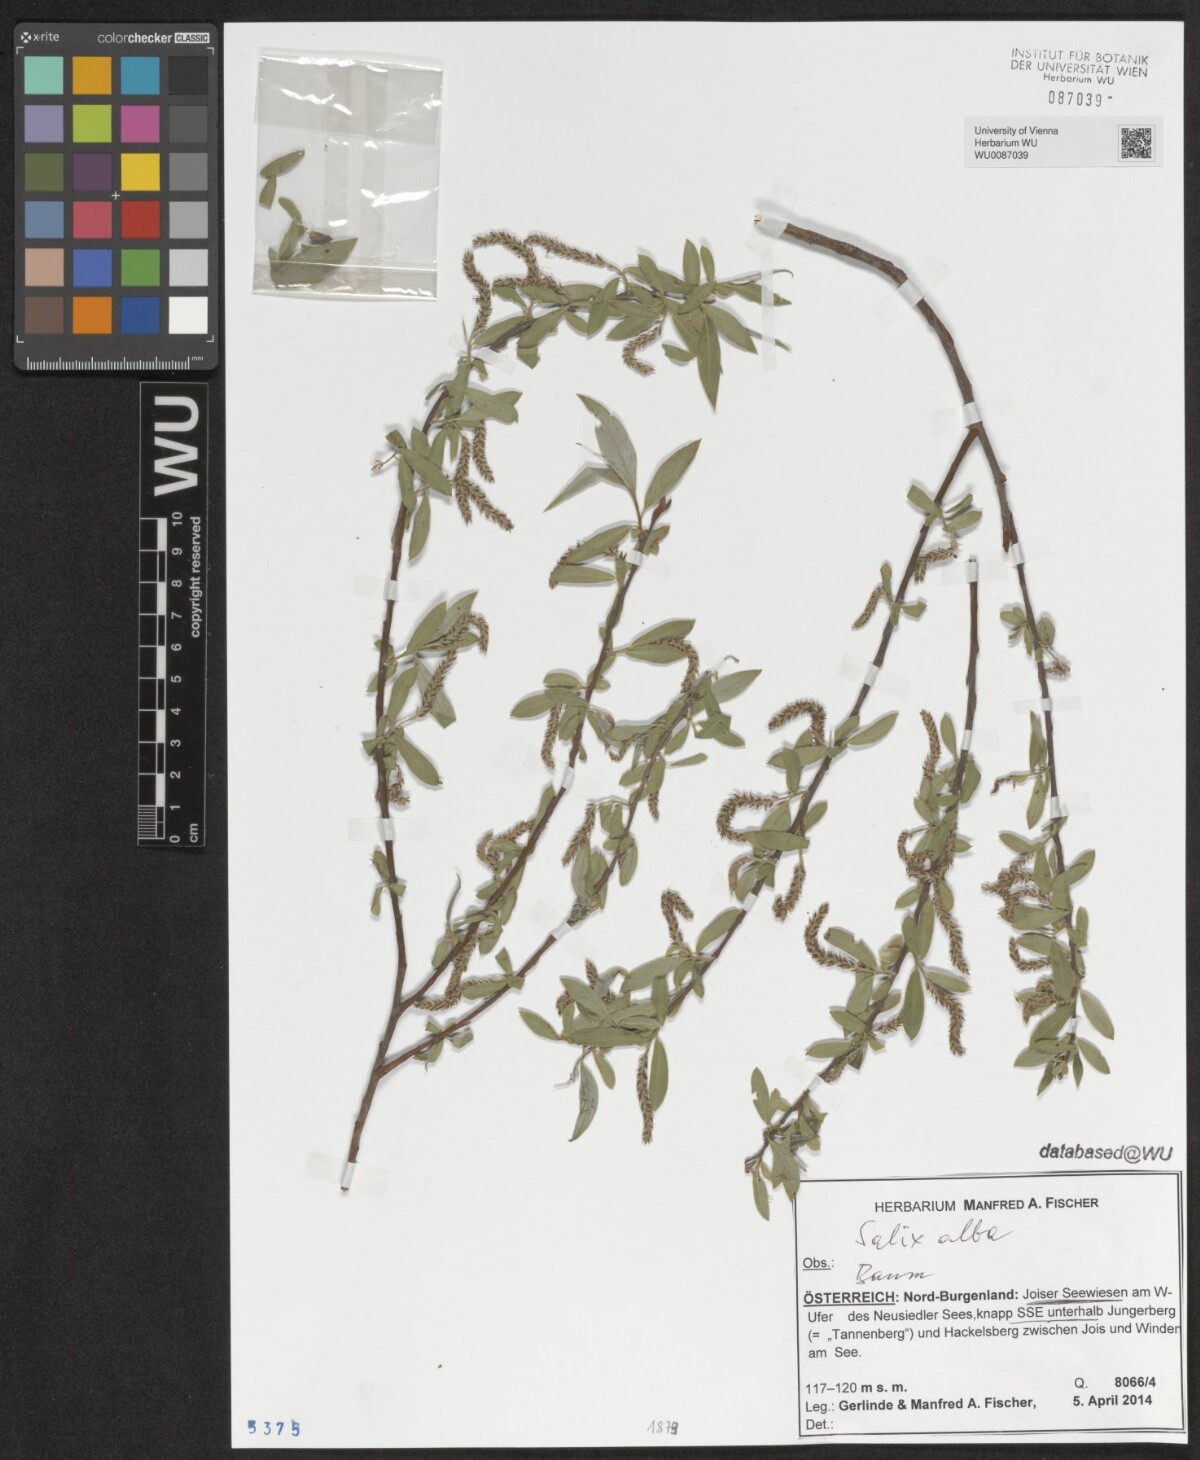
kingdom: Plantae
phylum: Tracheophyta
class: Magnoliopsida
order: Malpighiales
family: Salicaceae
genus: Salix
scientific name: Salix alba
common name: White willow
